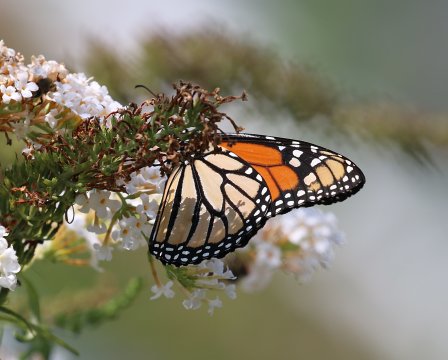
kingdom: Animalia
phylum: Arthropoda
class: Insecta
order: Lepidoptera
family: Nymphalidae
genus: Danaus
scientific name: Danaus plexippus
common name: Monarch
